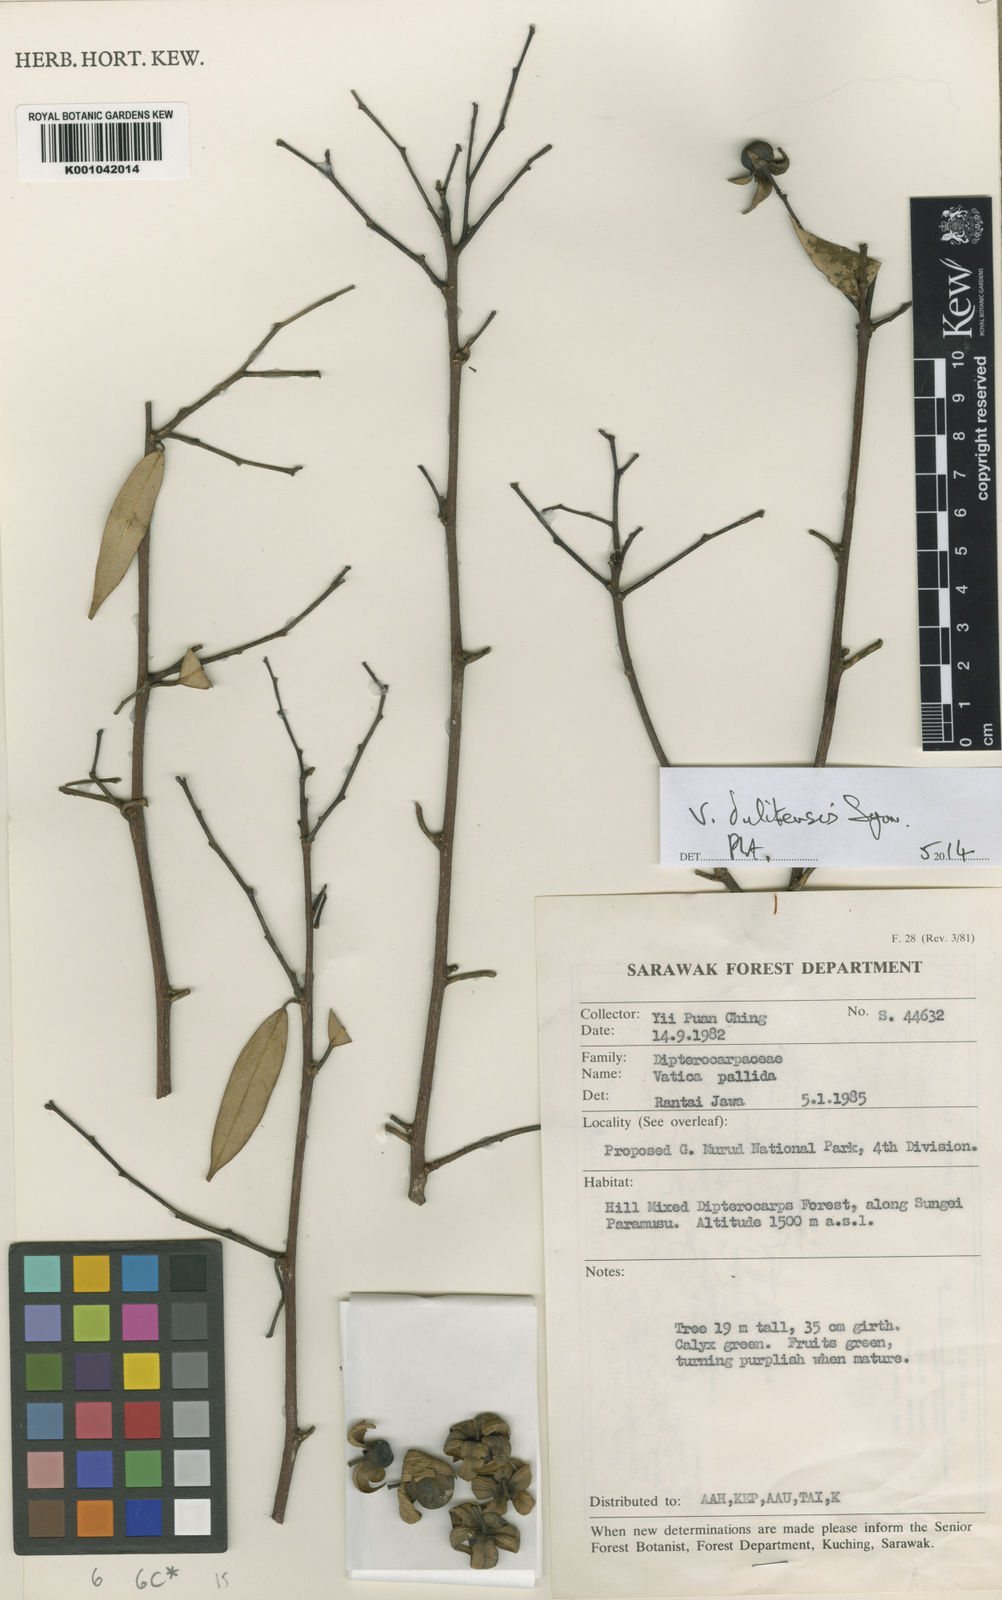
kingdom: Plantae
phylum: Tracheophyta
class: Magnoliopsida
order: Malvales
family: Dipterocarpaceae
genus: Vatica
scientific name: Vatica dulitensis
